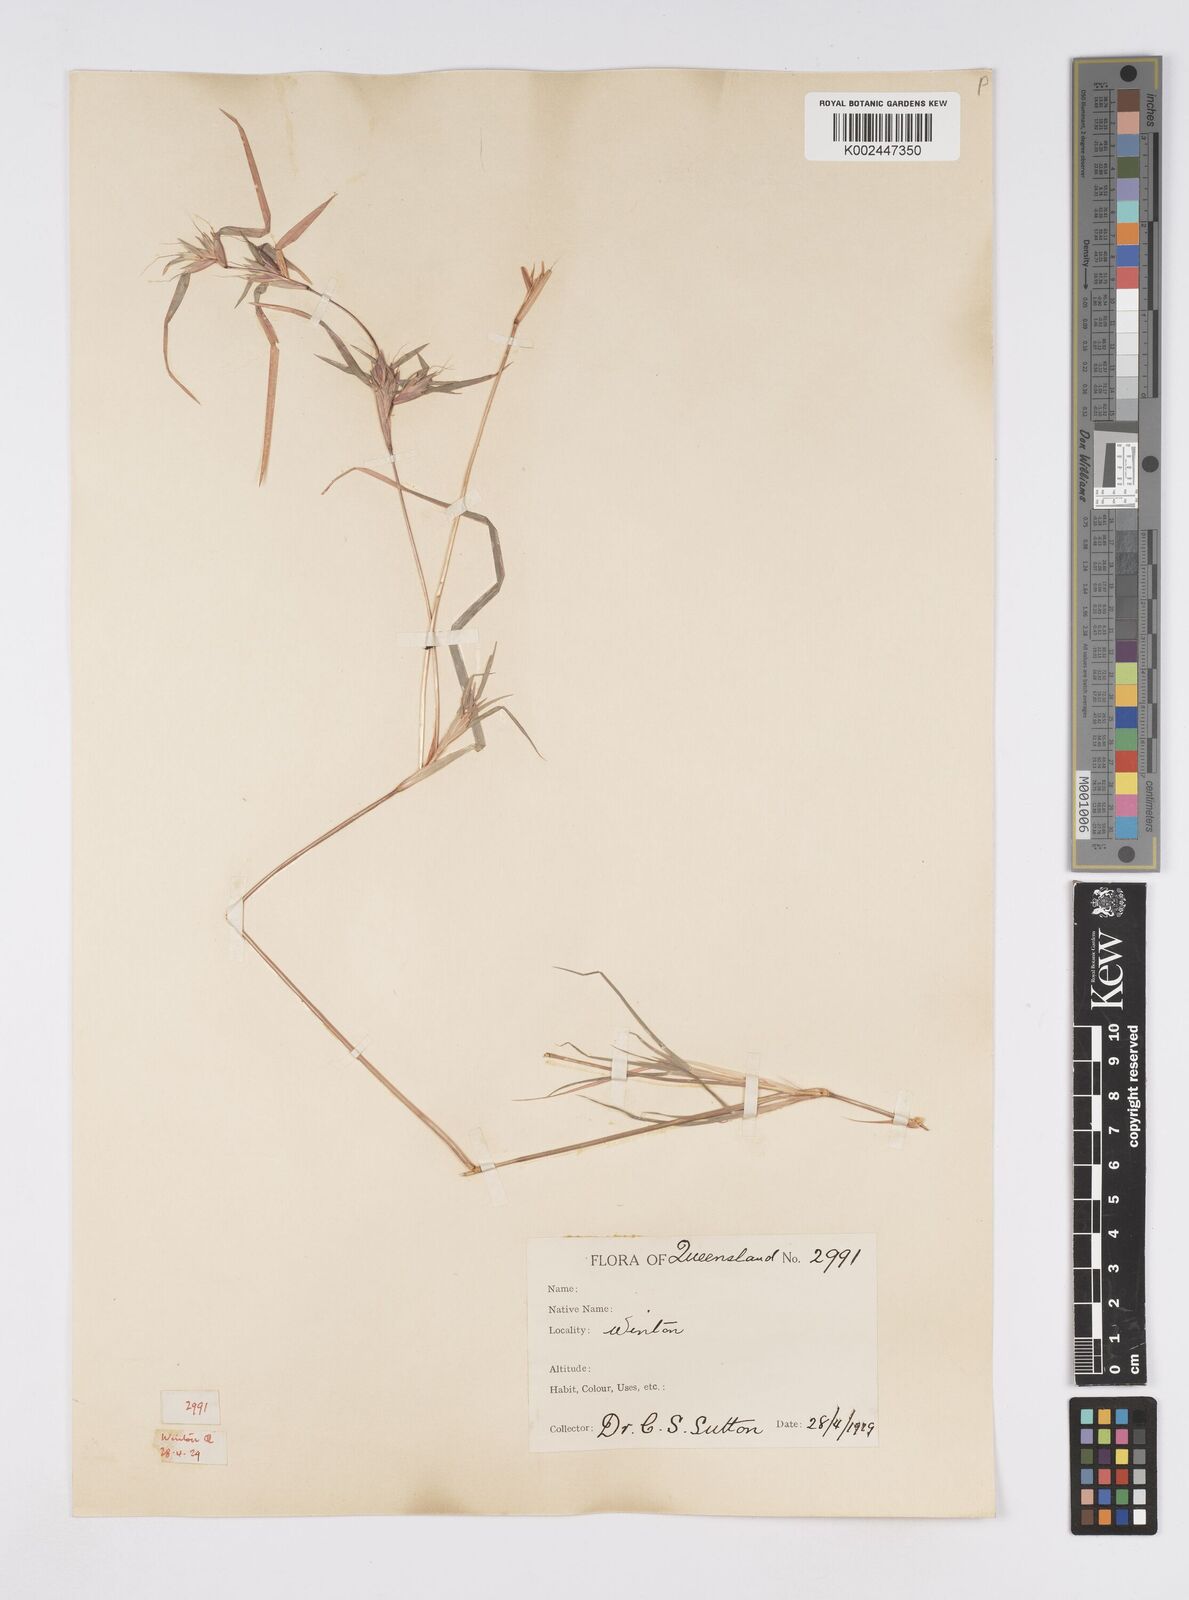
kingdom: Plantae
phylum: Tracheophyta
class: Liliopsida
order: Poales
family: Poaceae
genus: Iseilema
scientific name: Iseilema vaginiflorum
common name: Red flinders grass
